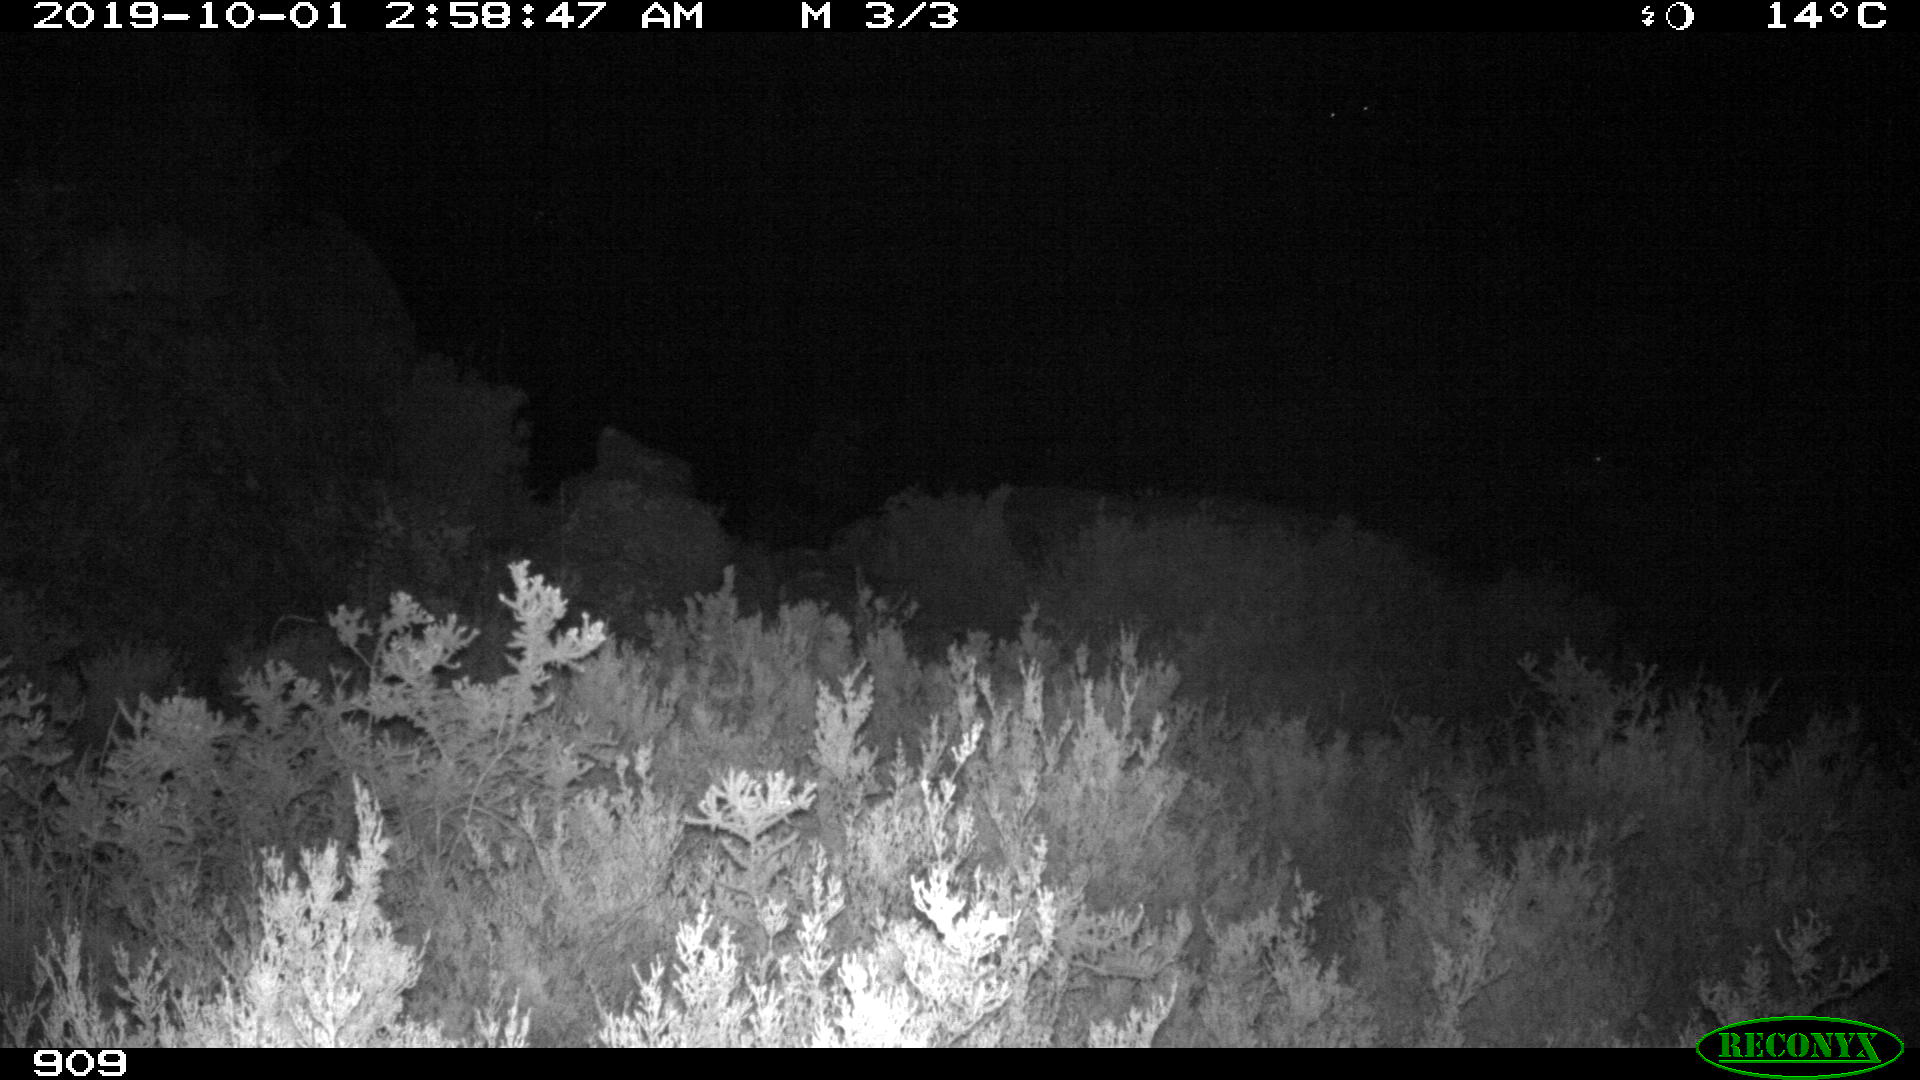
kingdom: Animalia
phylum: Chordata
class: Mammalia
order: Artiodactyla
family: Bovidae
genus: Capra
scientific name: Capra pyrenaica
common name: Spanish ibex
